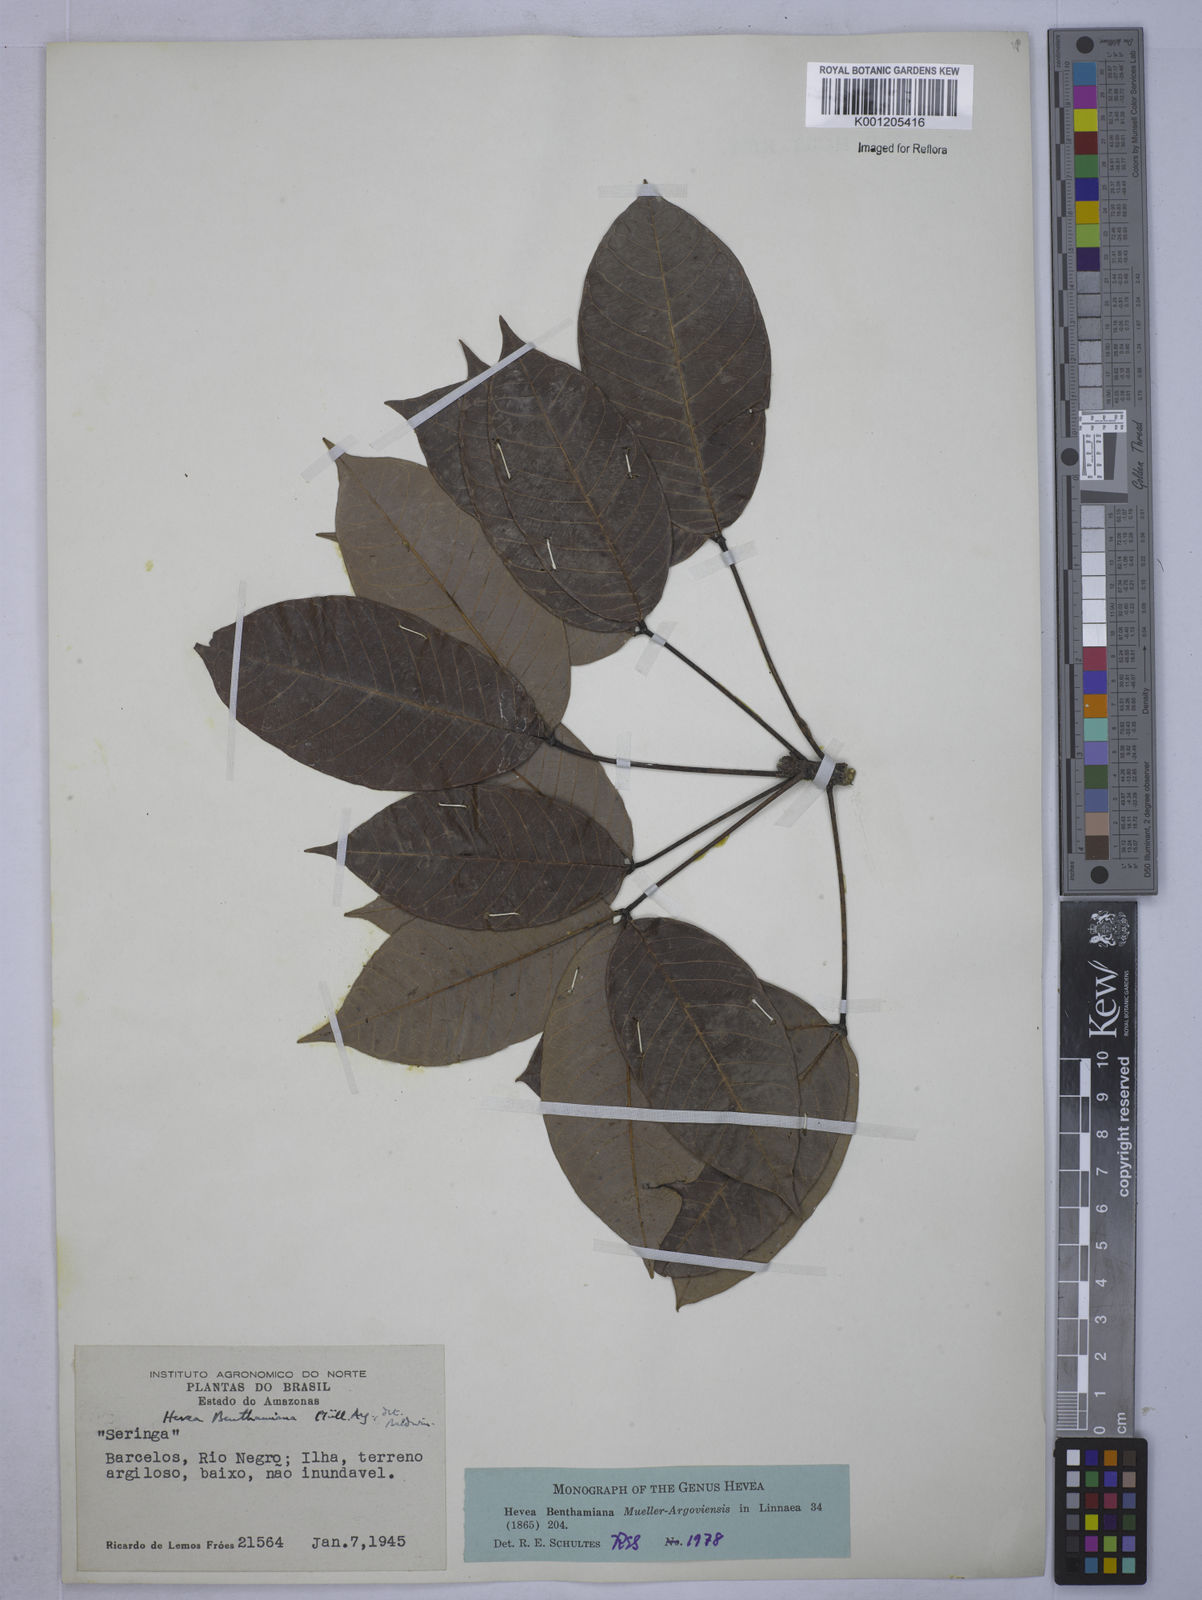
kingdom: Plantae
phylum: Tracheophyta
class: Magnoliopsida
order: Malpighiales
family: Euphorbiaceae
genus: Hevea
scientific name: Hevea
